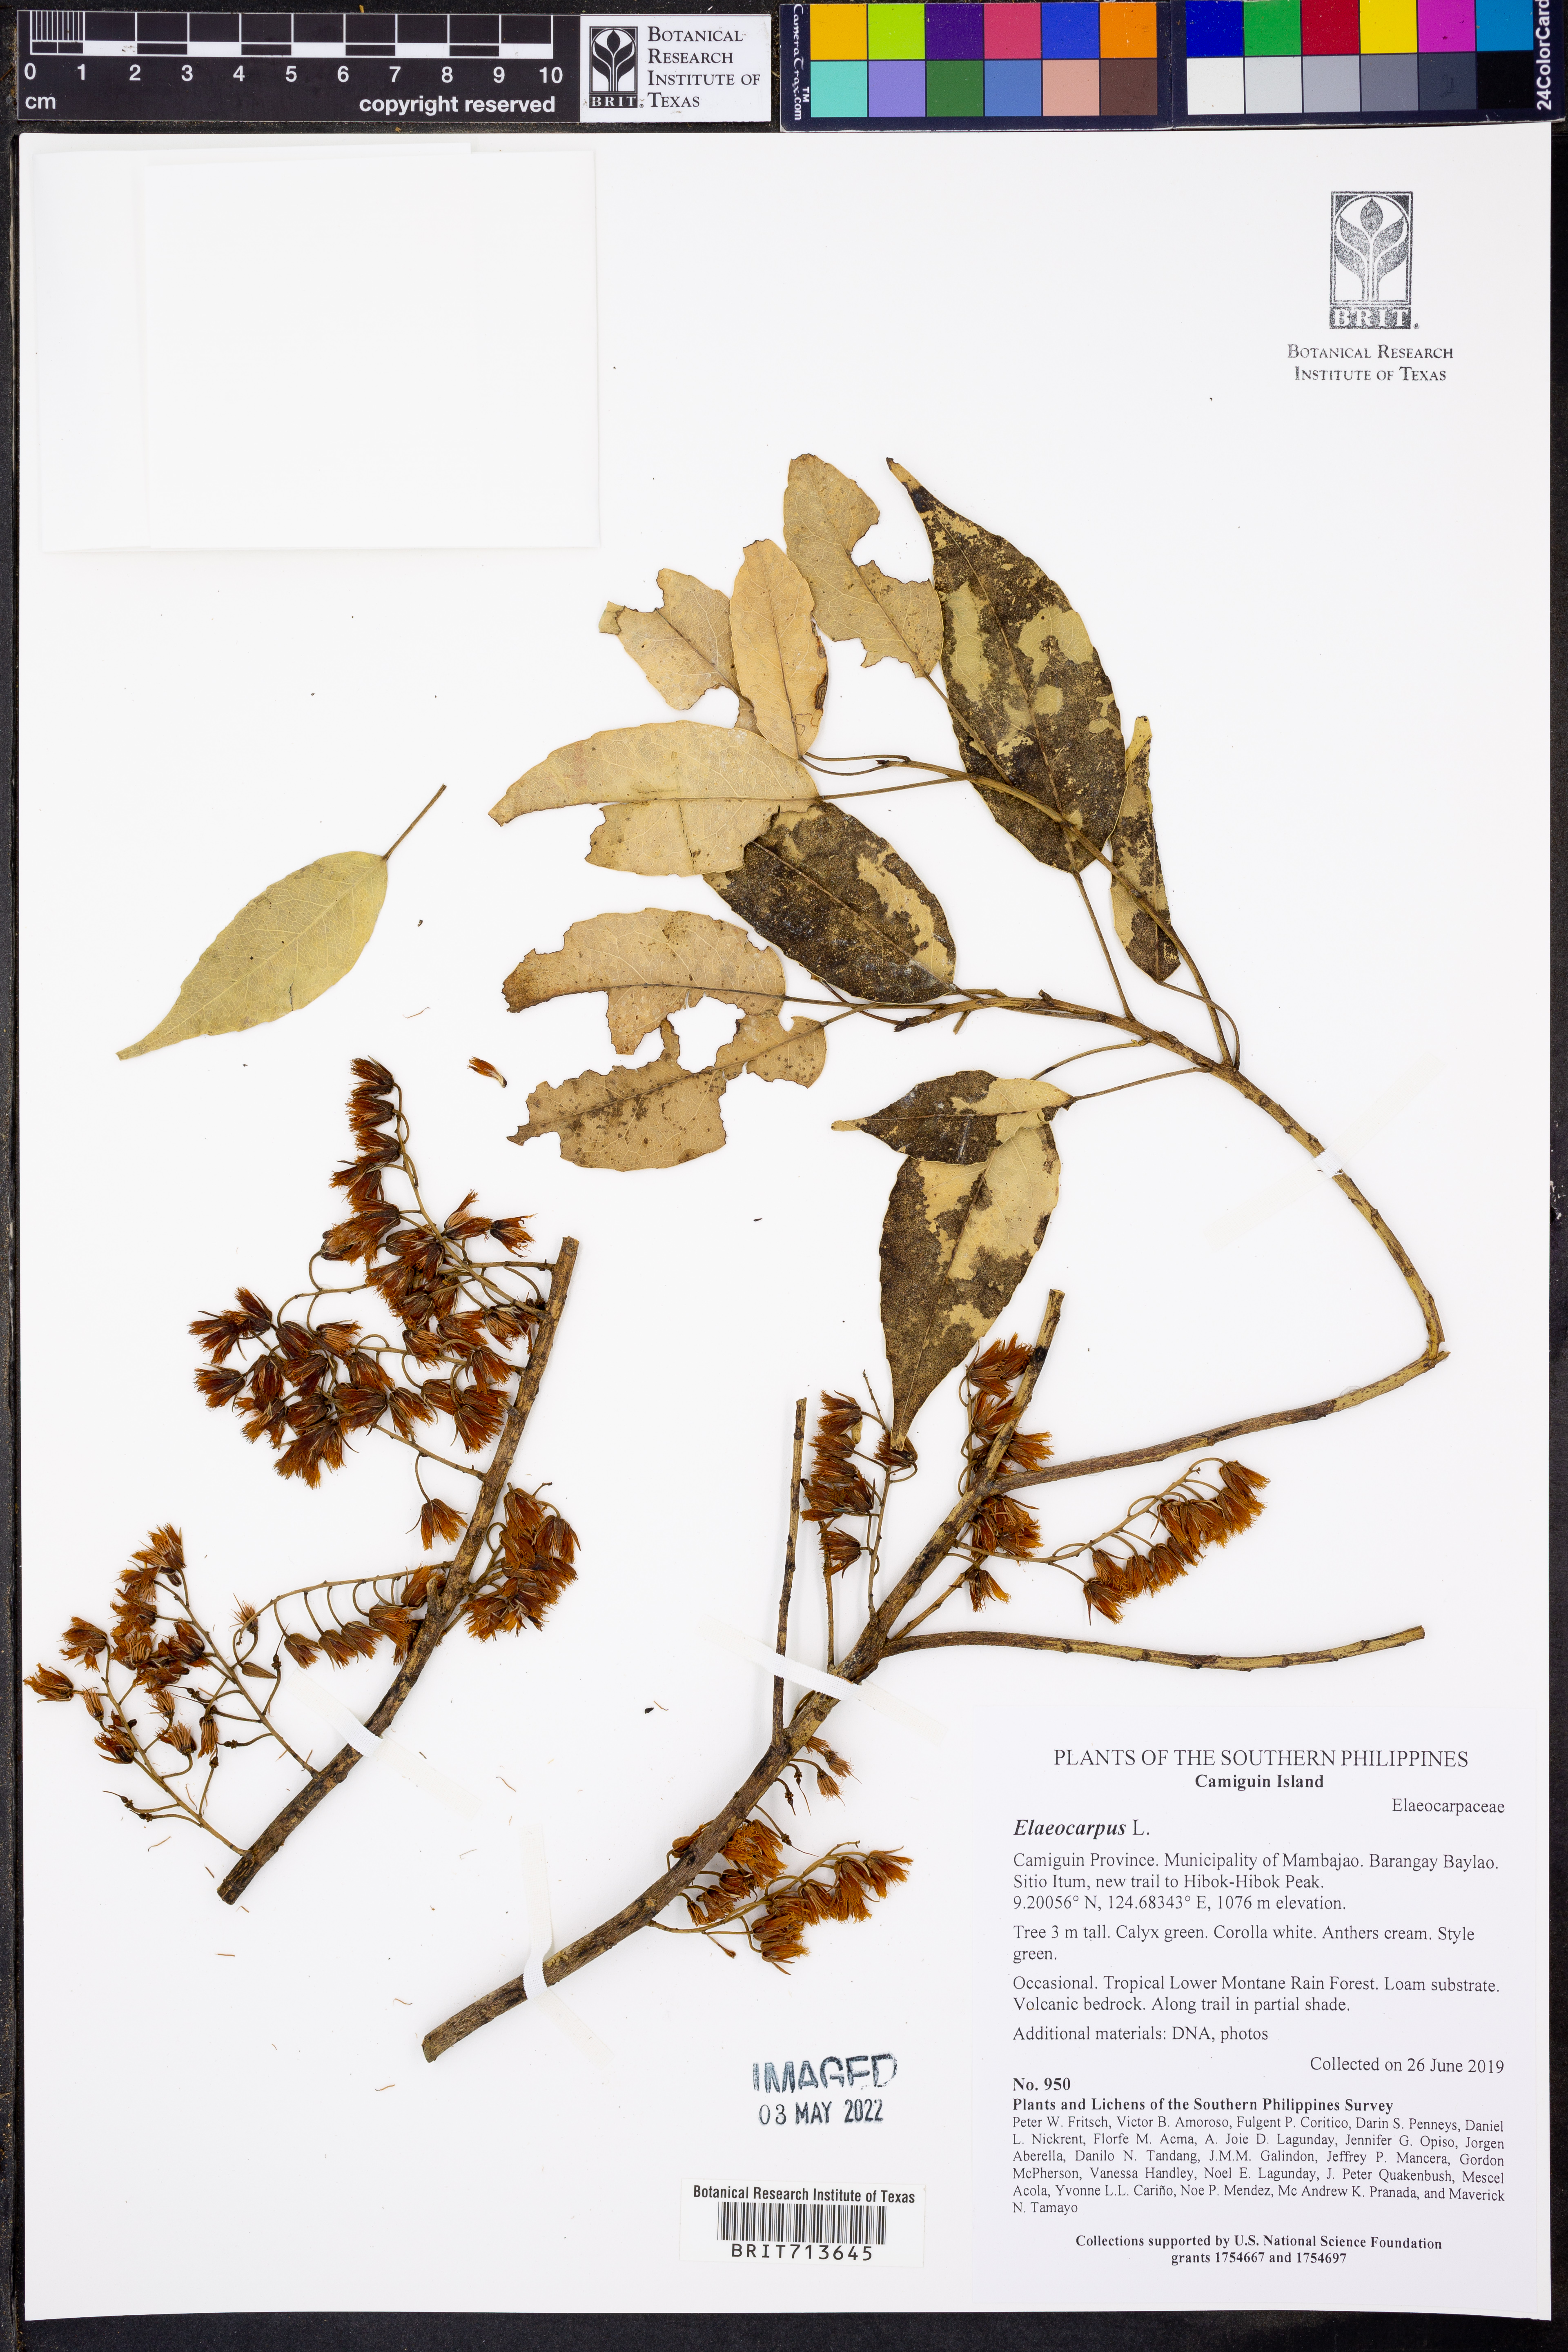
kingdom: Plantae
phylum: Tracheophyta
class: Magnoliopsida
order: Oxalidales
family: Elaeocarpaceae
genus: Elaeocarpus
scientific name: Elaeocarpus
